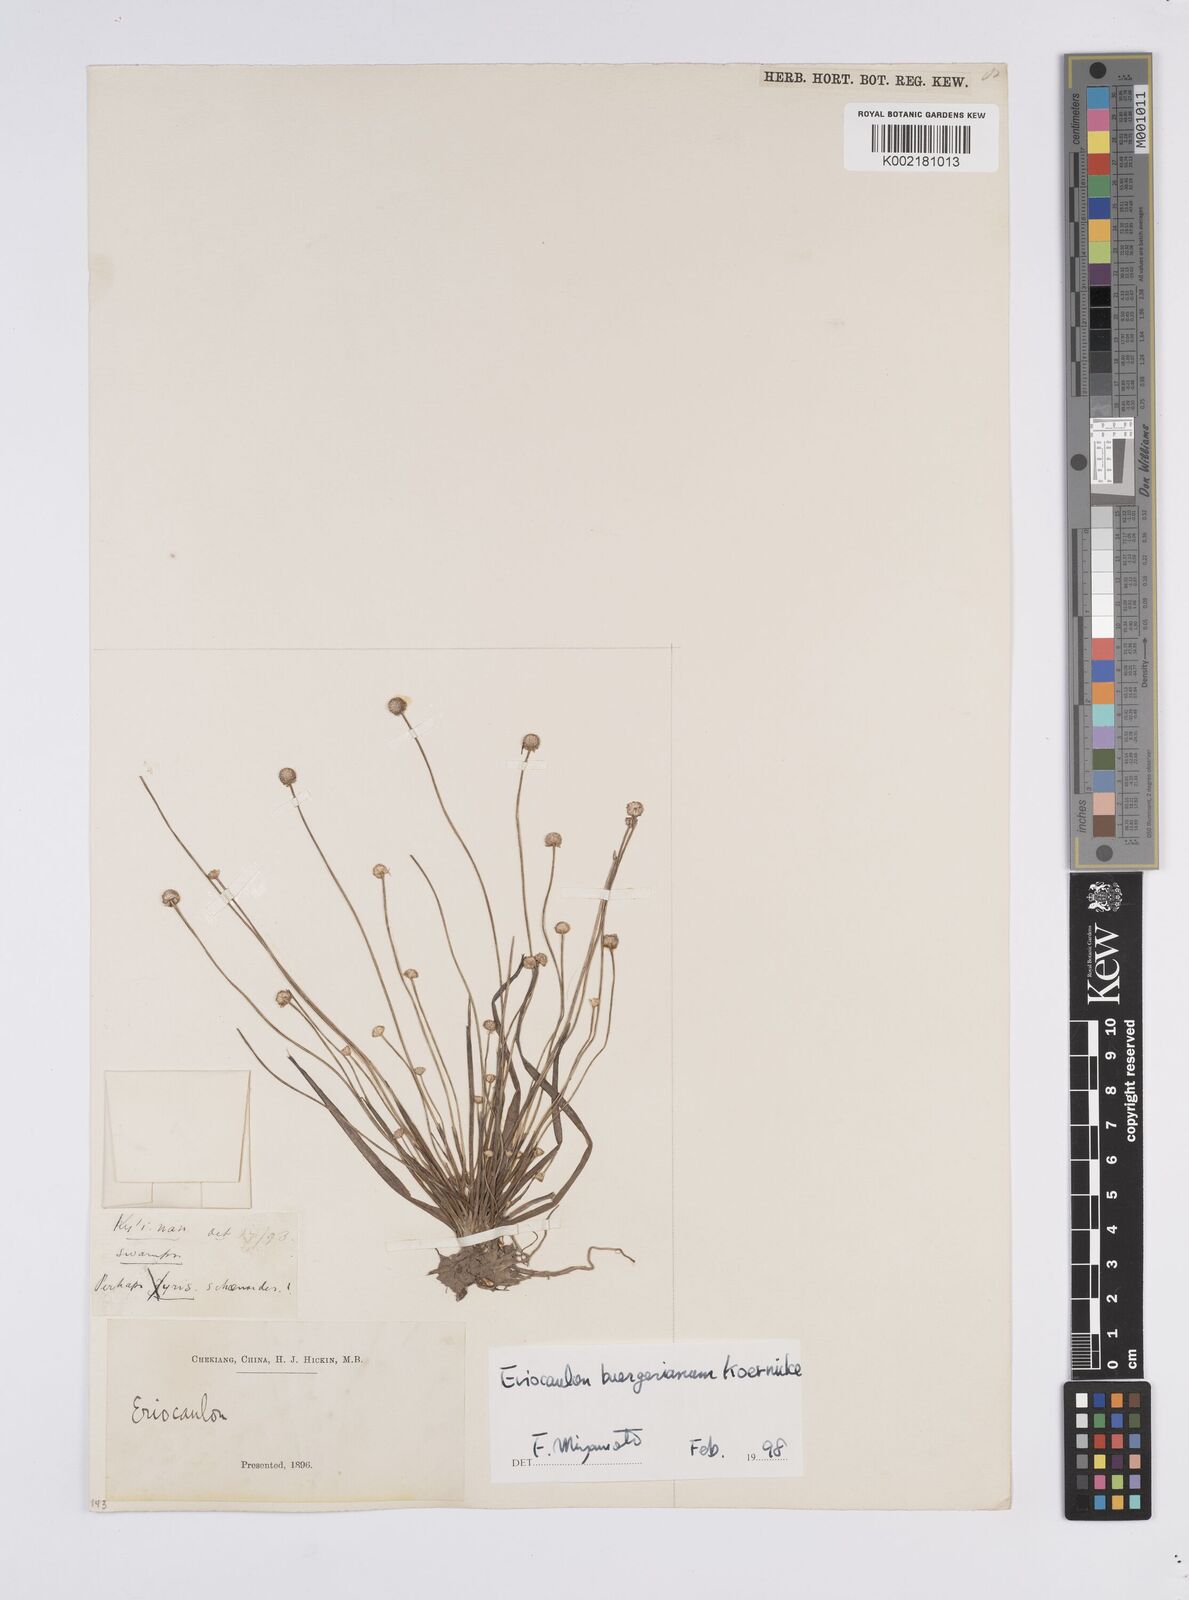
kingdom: Plantae
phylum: Tracheophyta
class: Liliopsida
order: Poales
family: Eriocaulaceae
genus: Eriocaulon
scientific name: Eriocaulon buergerianum
